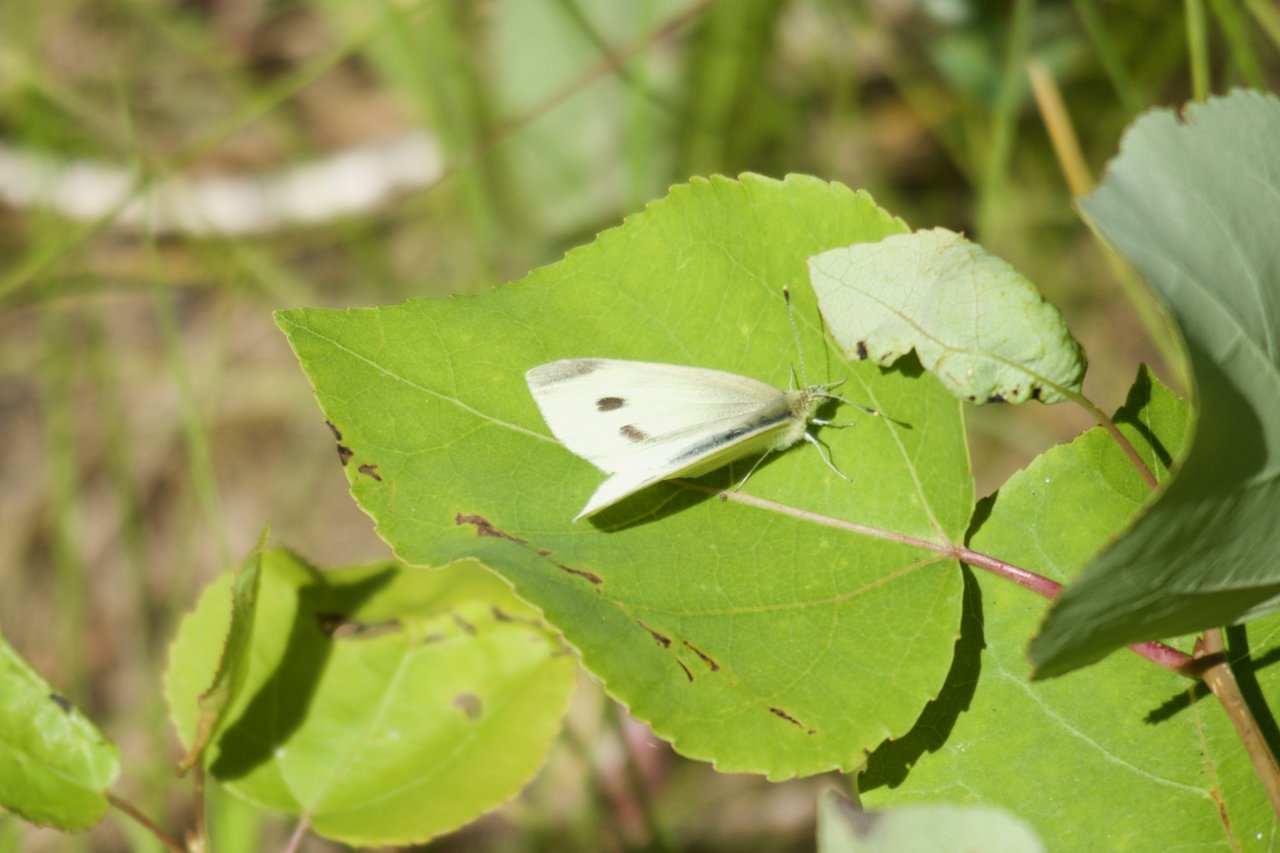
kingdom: Animalia
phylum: Arthropoda
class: Insecta
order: Lepidoptera
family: Pieridae
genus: Pieris
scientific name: Pieris rapae
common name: Cabbage White
